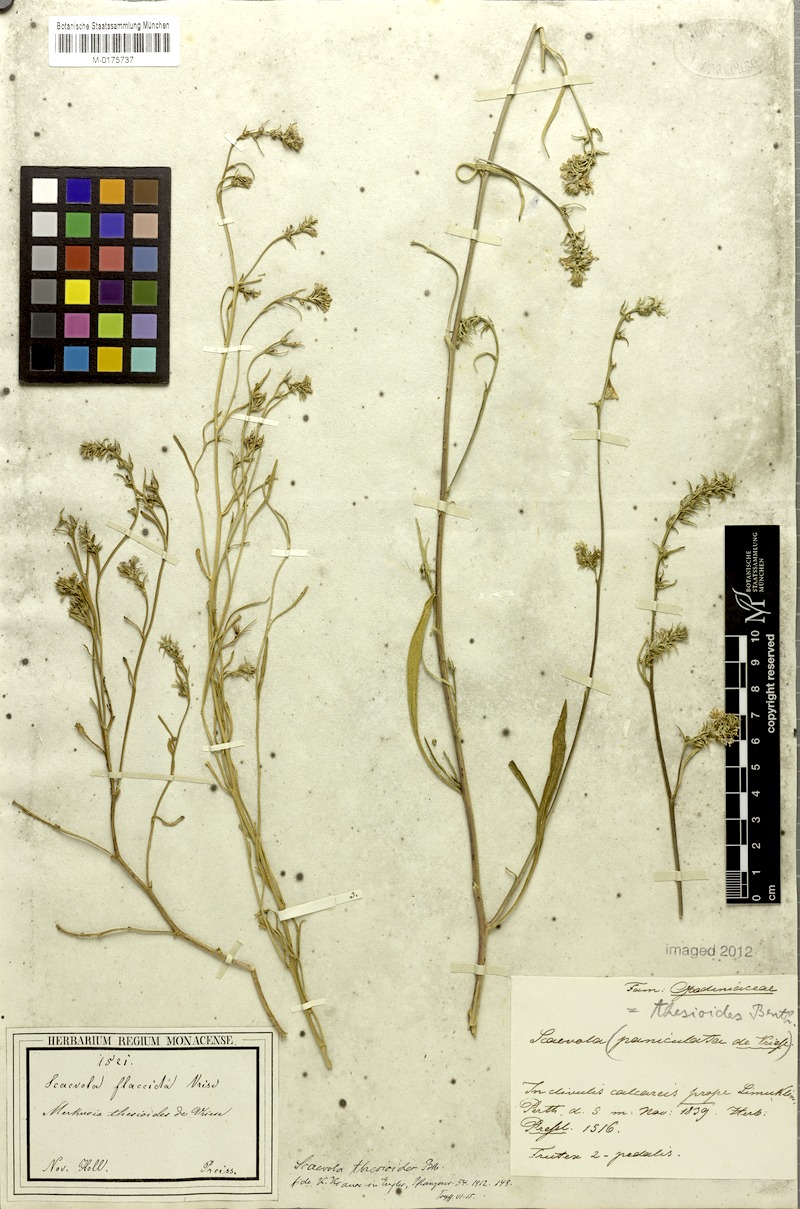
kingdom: Plantae
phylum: Tracheophyta
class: Magnoliopsida
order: Asterales
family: Goodeniaceae
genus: Scaevola
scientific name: Scaevola thesioides
